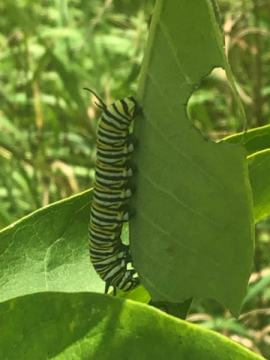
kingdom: Animalia
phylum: Arthropoda
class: Insecta
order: Lepidoptera
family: Nymphalidae
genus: Danaus
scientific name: Danaus plexippus
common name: Monarch
